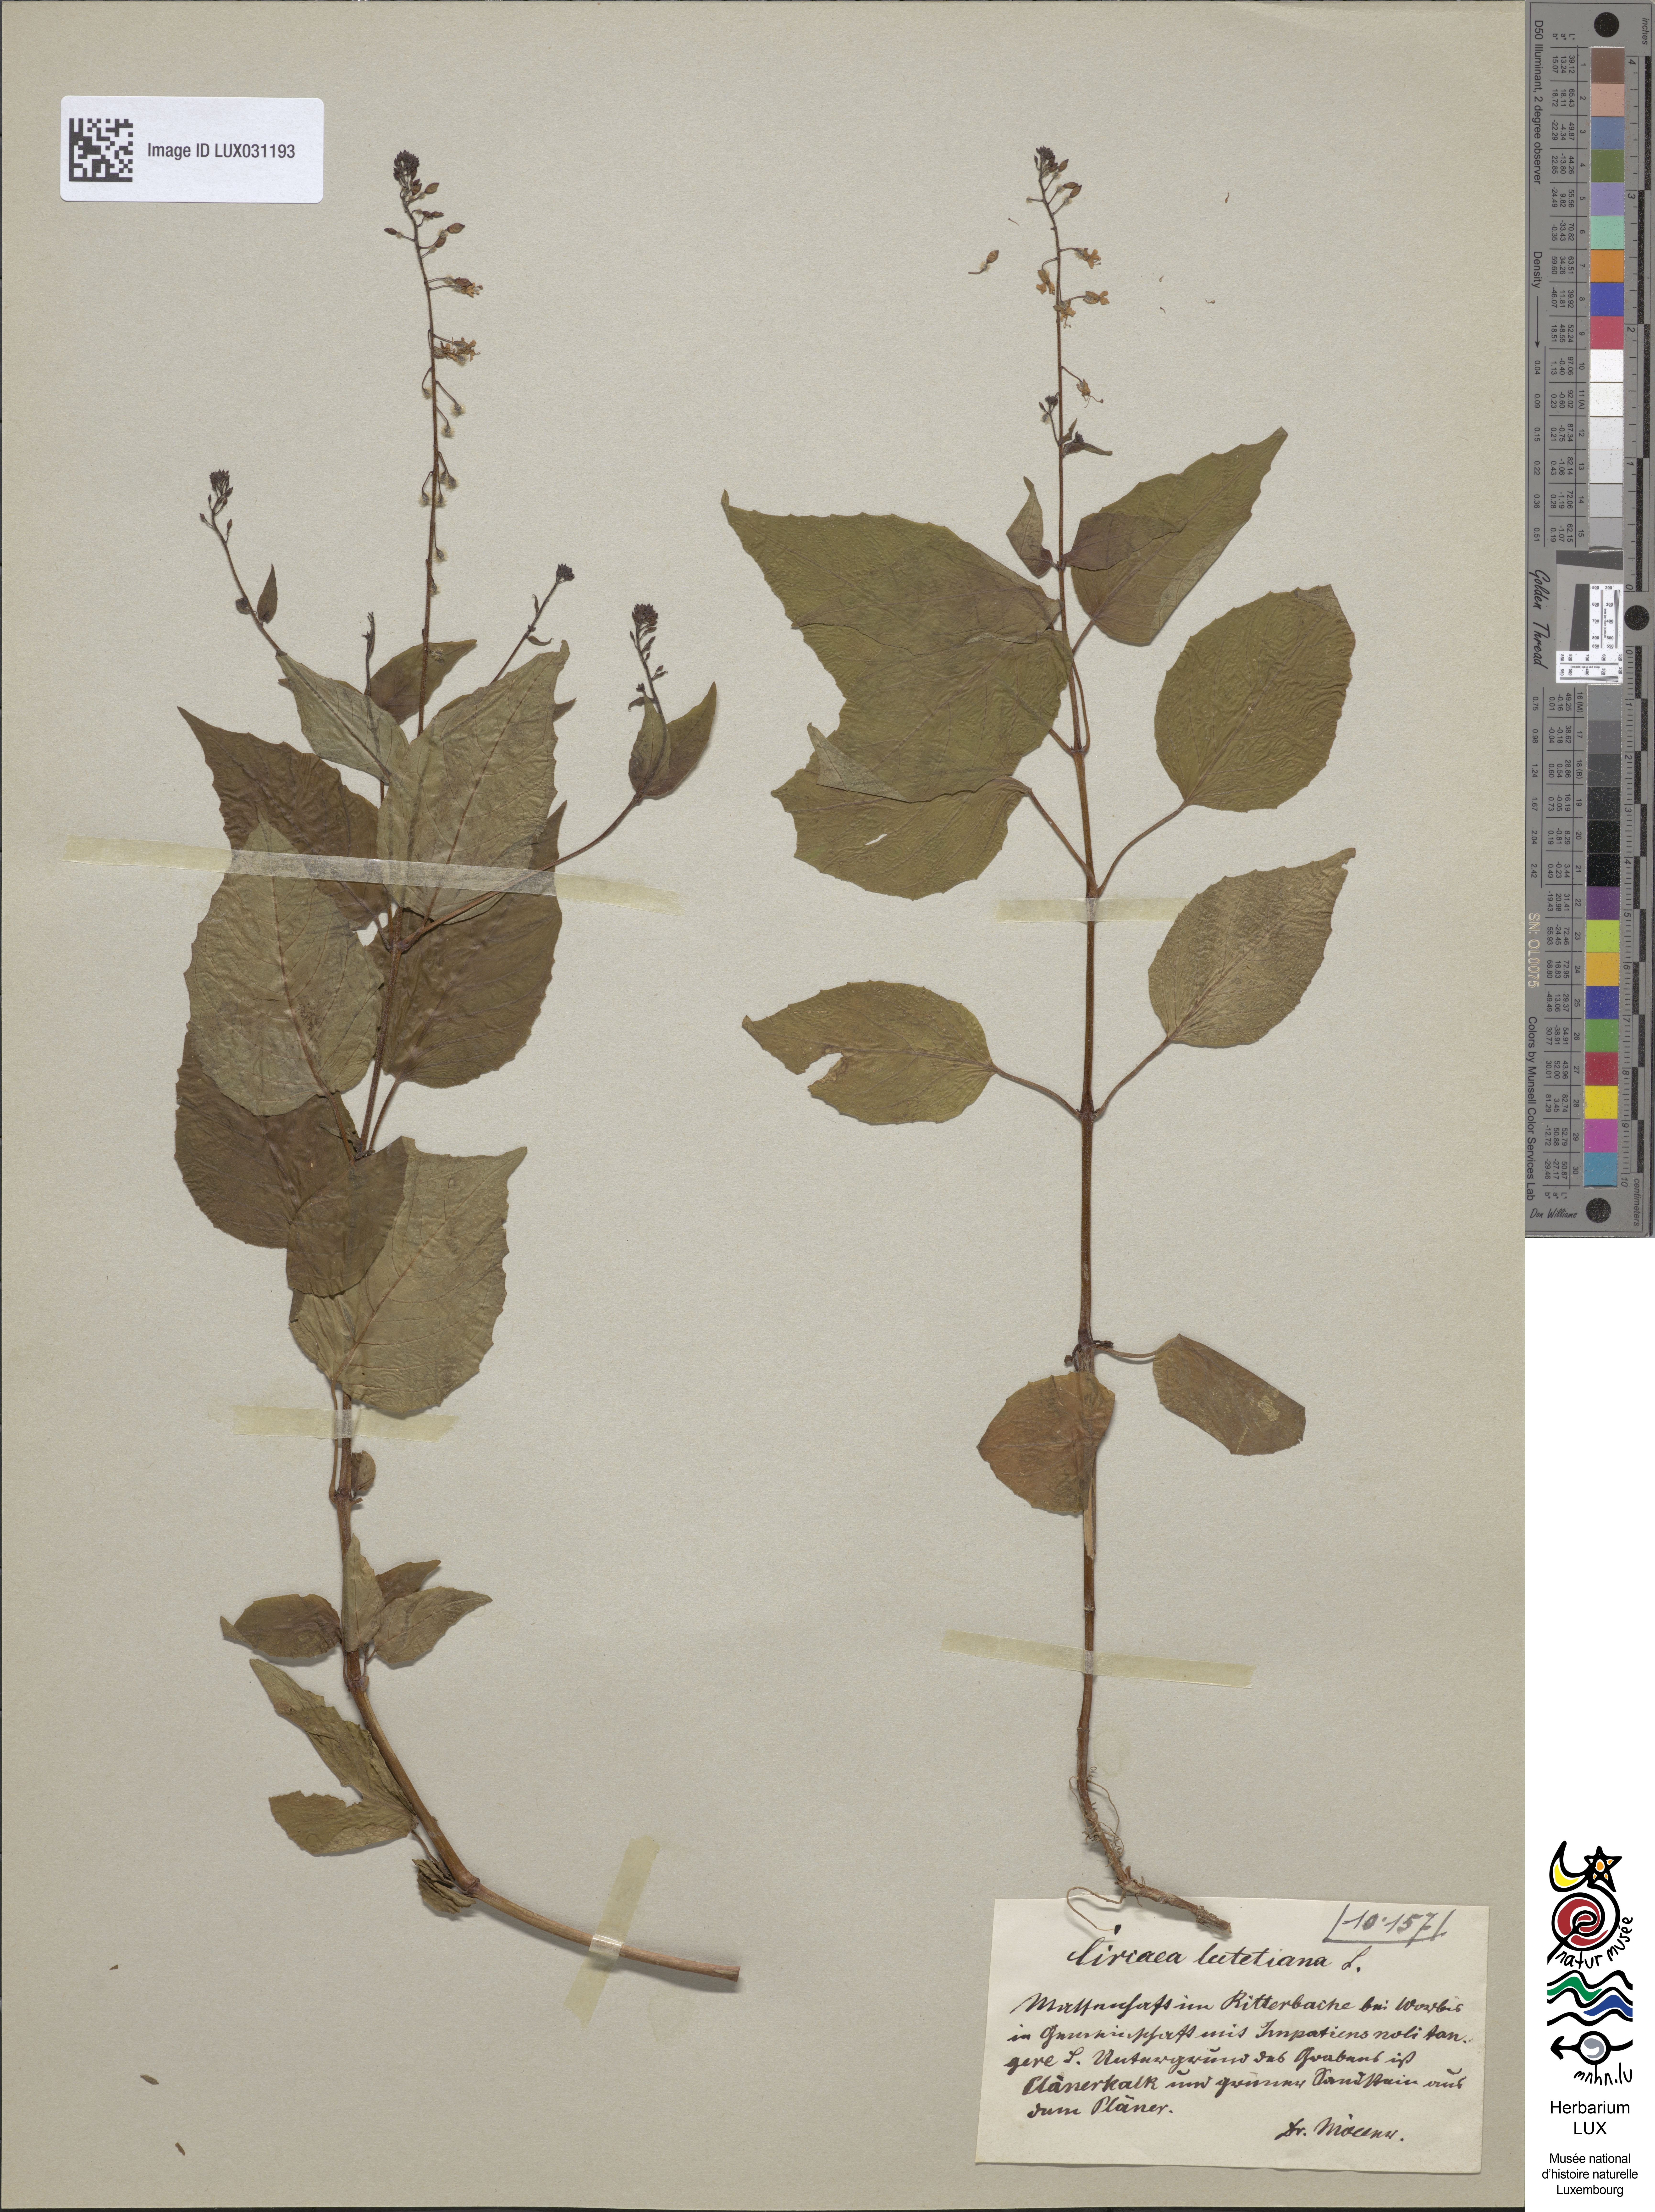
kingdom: Plantae
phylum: Tracheophyta
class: Magnoliopsida
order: Myrtales
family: Onagraceae
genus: Circaea
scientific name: Circaea lutetiana
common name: Enchanter's-nightshade
